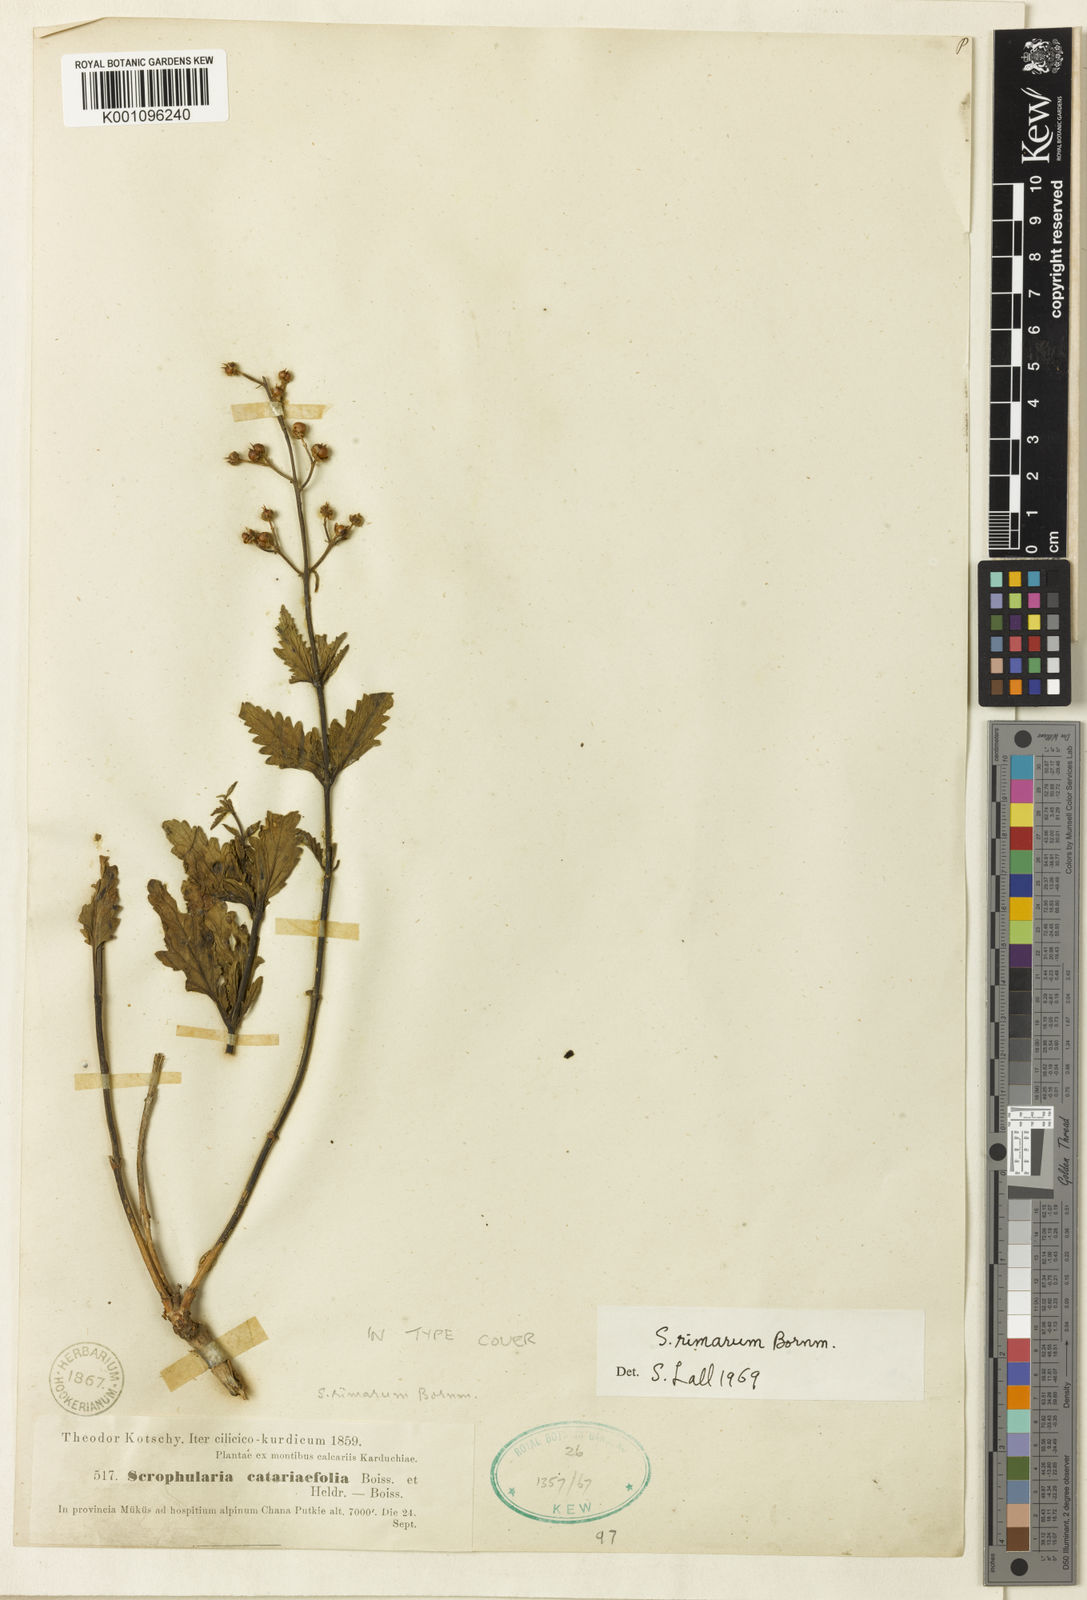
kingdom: Plantae
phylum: Tracheophyta
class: Magnoliopsida
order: Lamiales
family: Scrophulariaceae
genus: Scrophularia
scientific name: Scrophularia catariifolia
